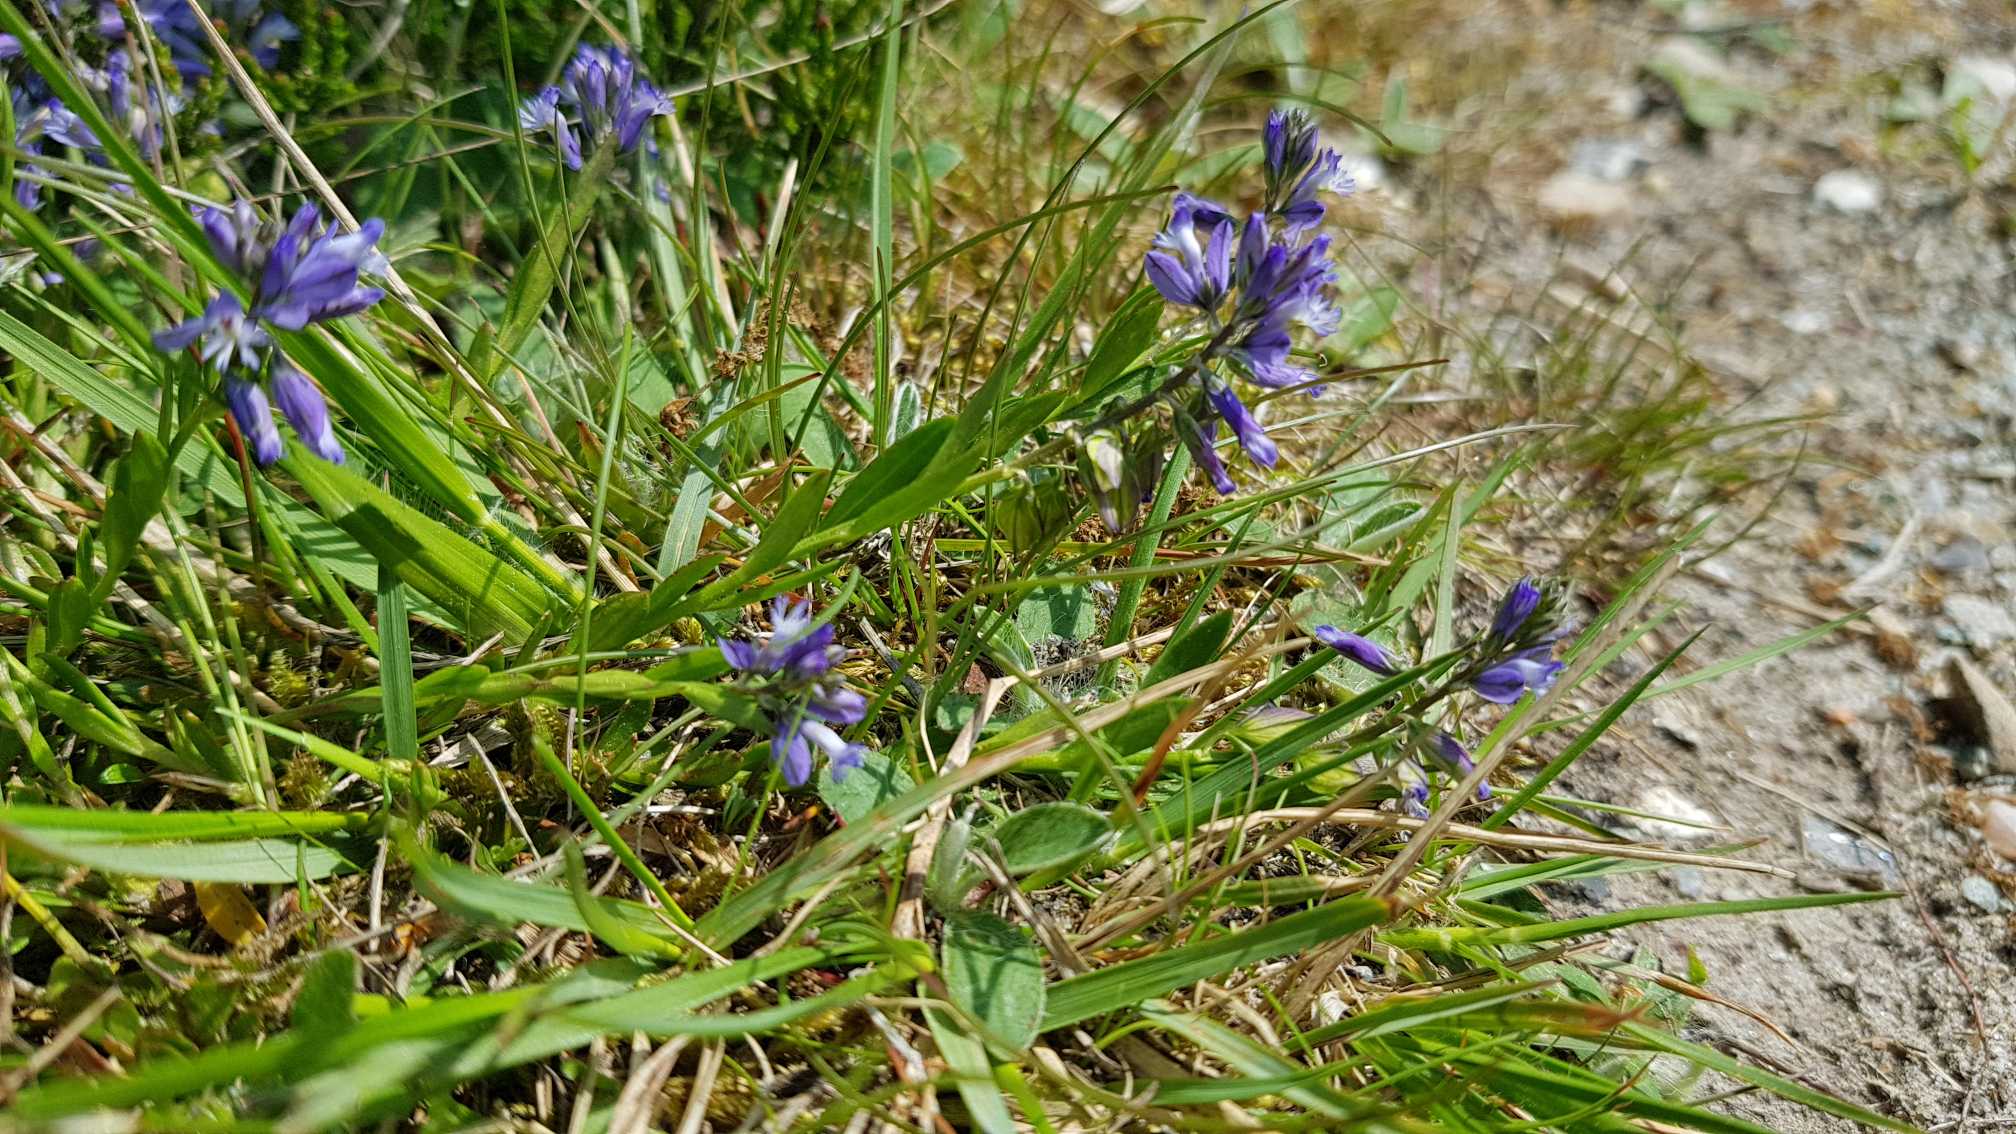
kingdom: Plantae
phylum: Tracheophyta
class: Magnoliopsida
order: Fabales
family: Polygalaceae
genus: Polygala
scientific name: Polygala vulgaris
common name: Almindelig mælkeurt
